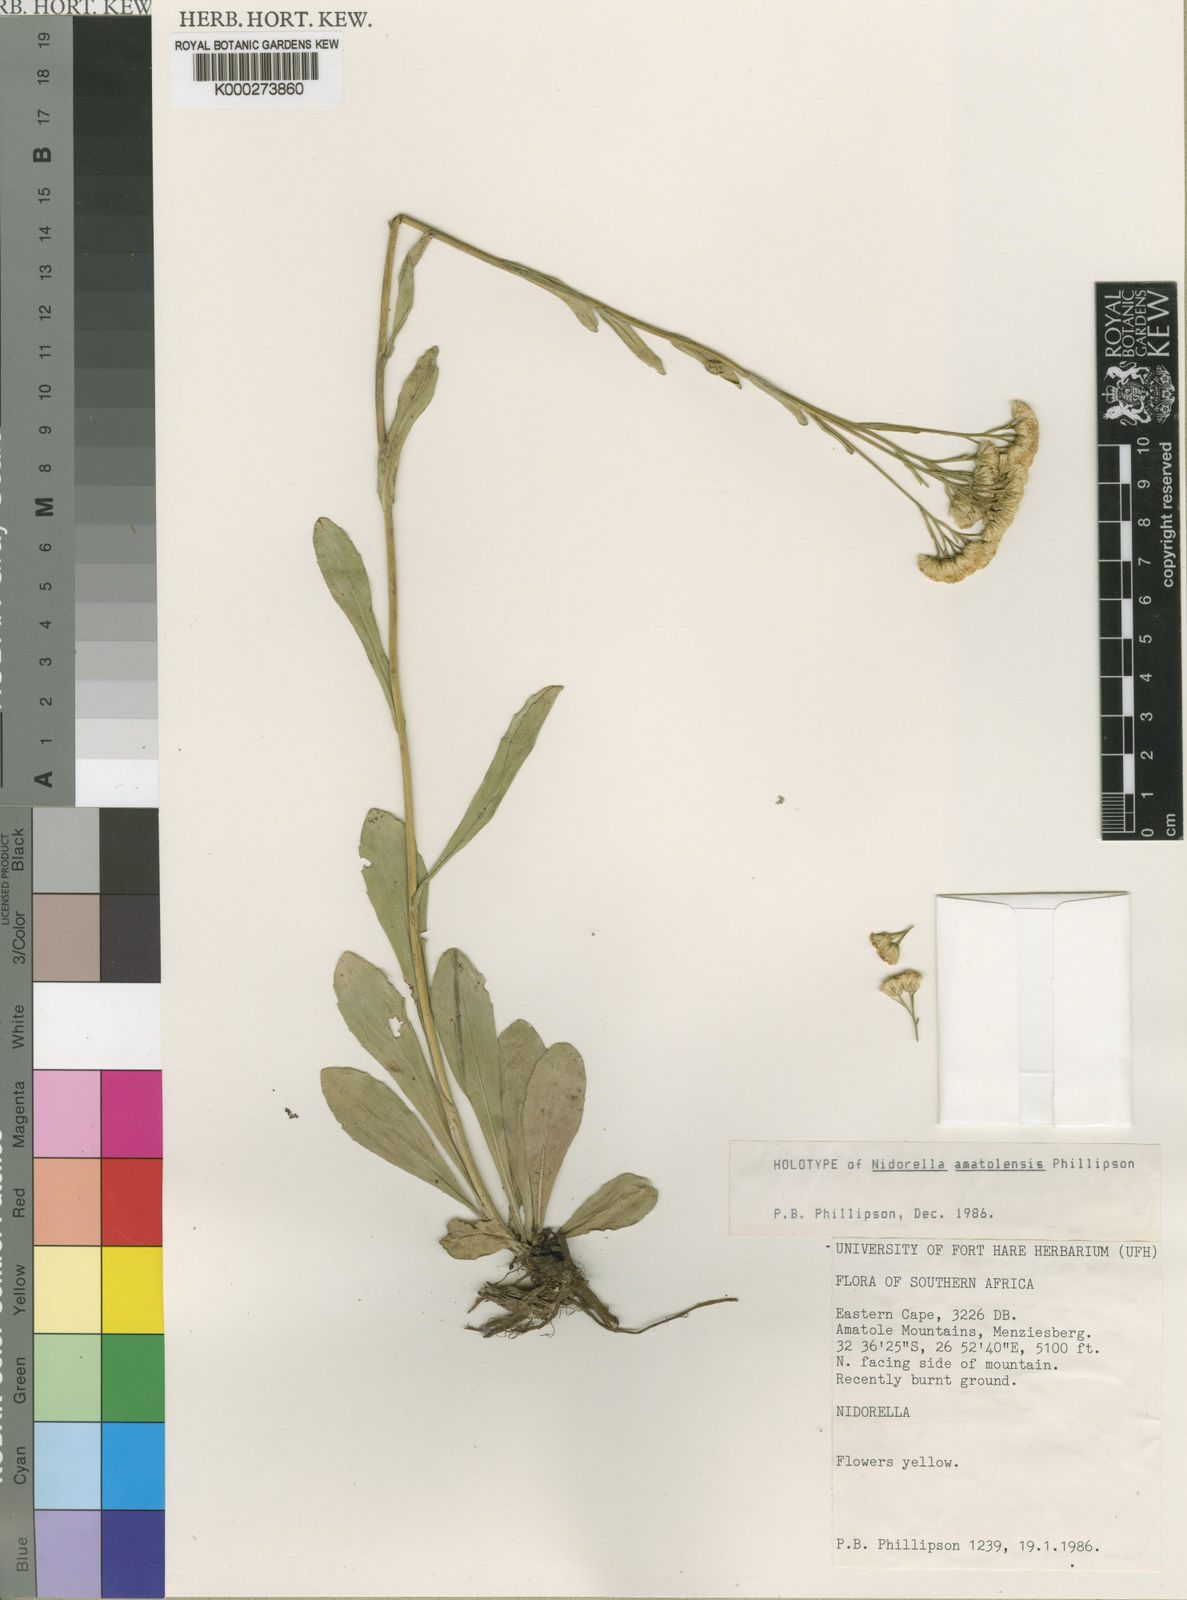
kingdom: Plantae
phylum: Tracheophyta
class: Magnoliopsida
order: Asterales
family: Asteraceae
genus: Nidorella
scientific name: Nidorella
